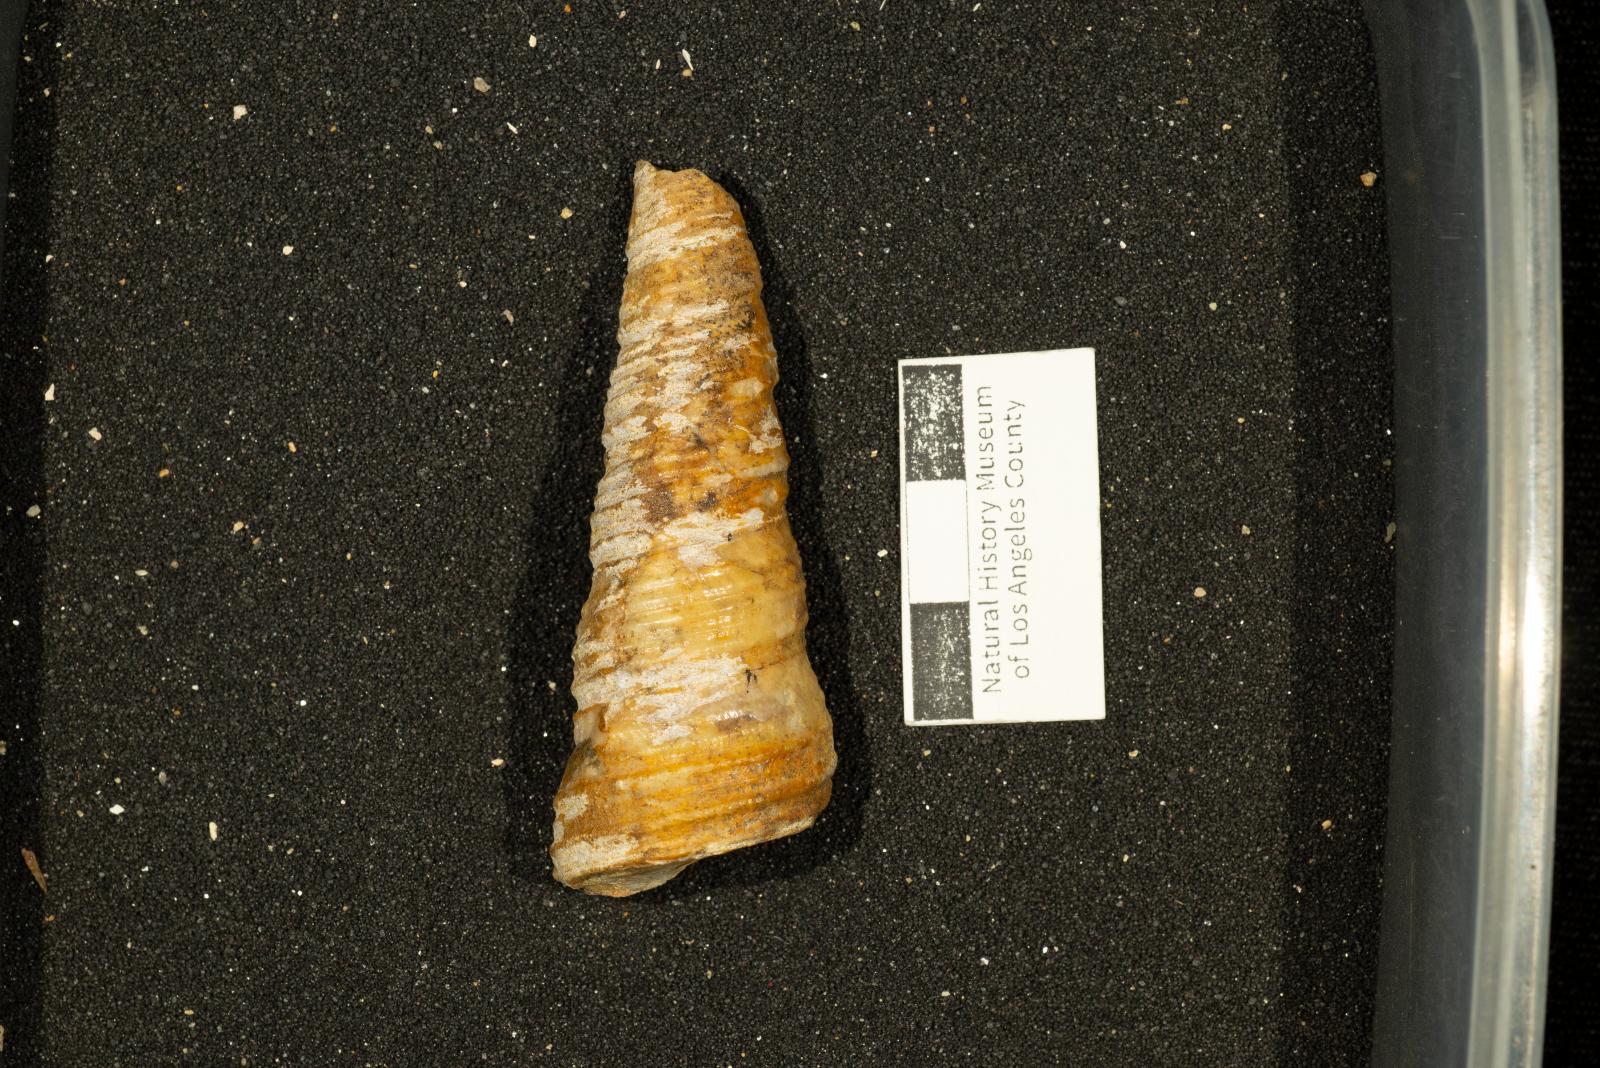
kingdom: Animalia
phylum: Mollusca
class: Gastropoda
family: Turritellidae
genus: Turritella
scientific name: Turritella chicoensis
